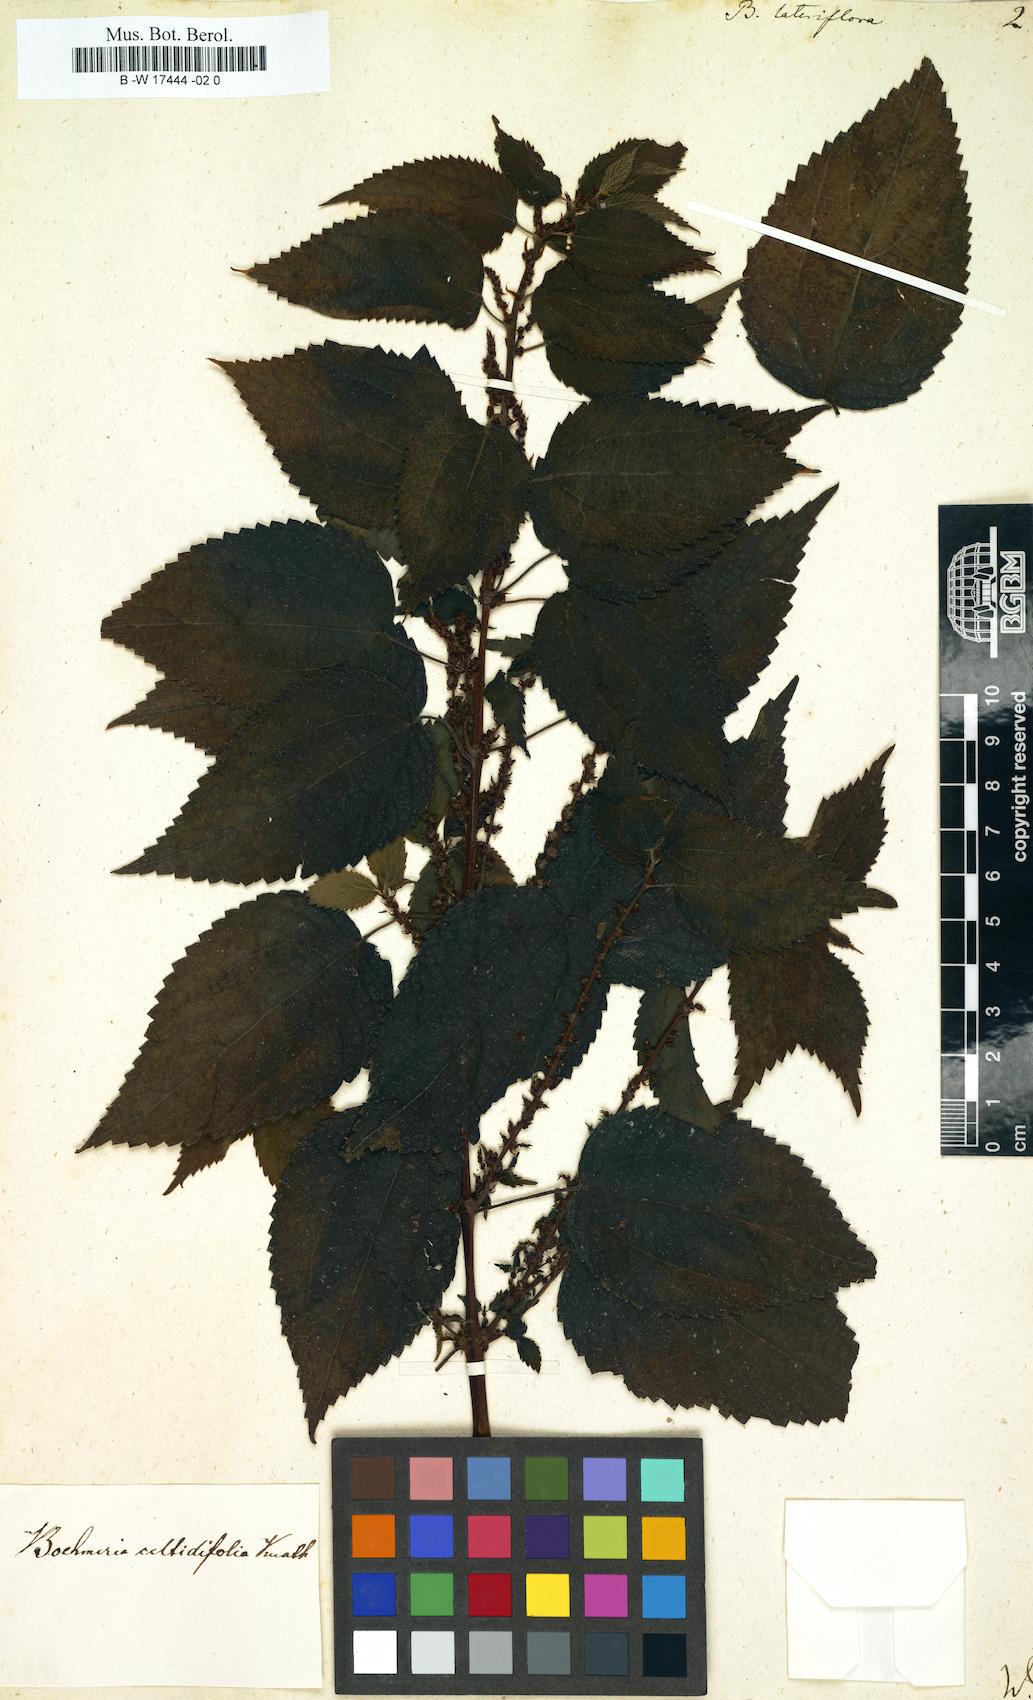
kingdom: Plantae
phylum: Tracheophyta
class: Magnoliopsida
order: Rosales
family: Urticaceae
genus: Boehmeria
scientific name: Boehmeria cylindrica
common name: Bog-hemp
